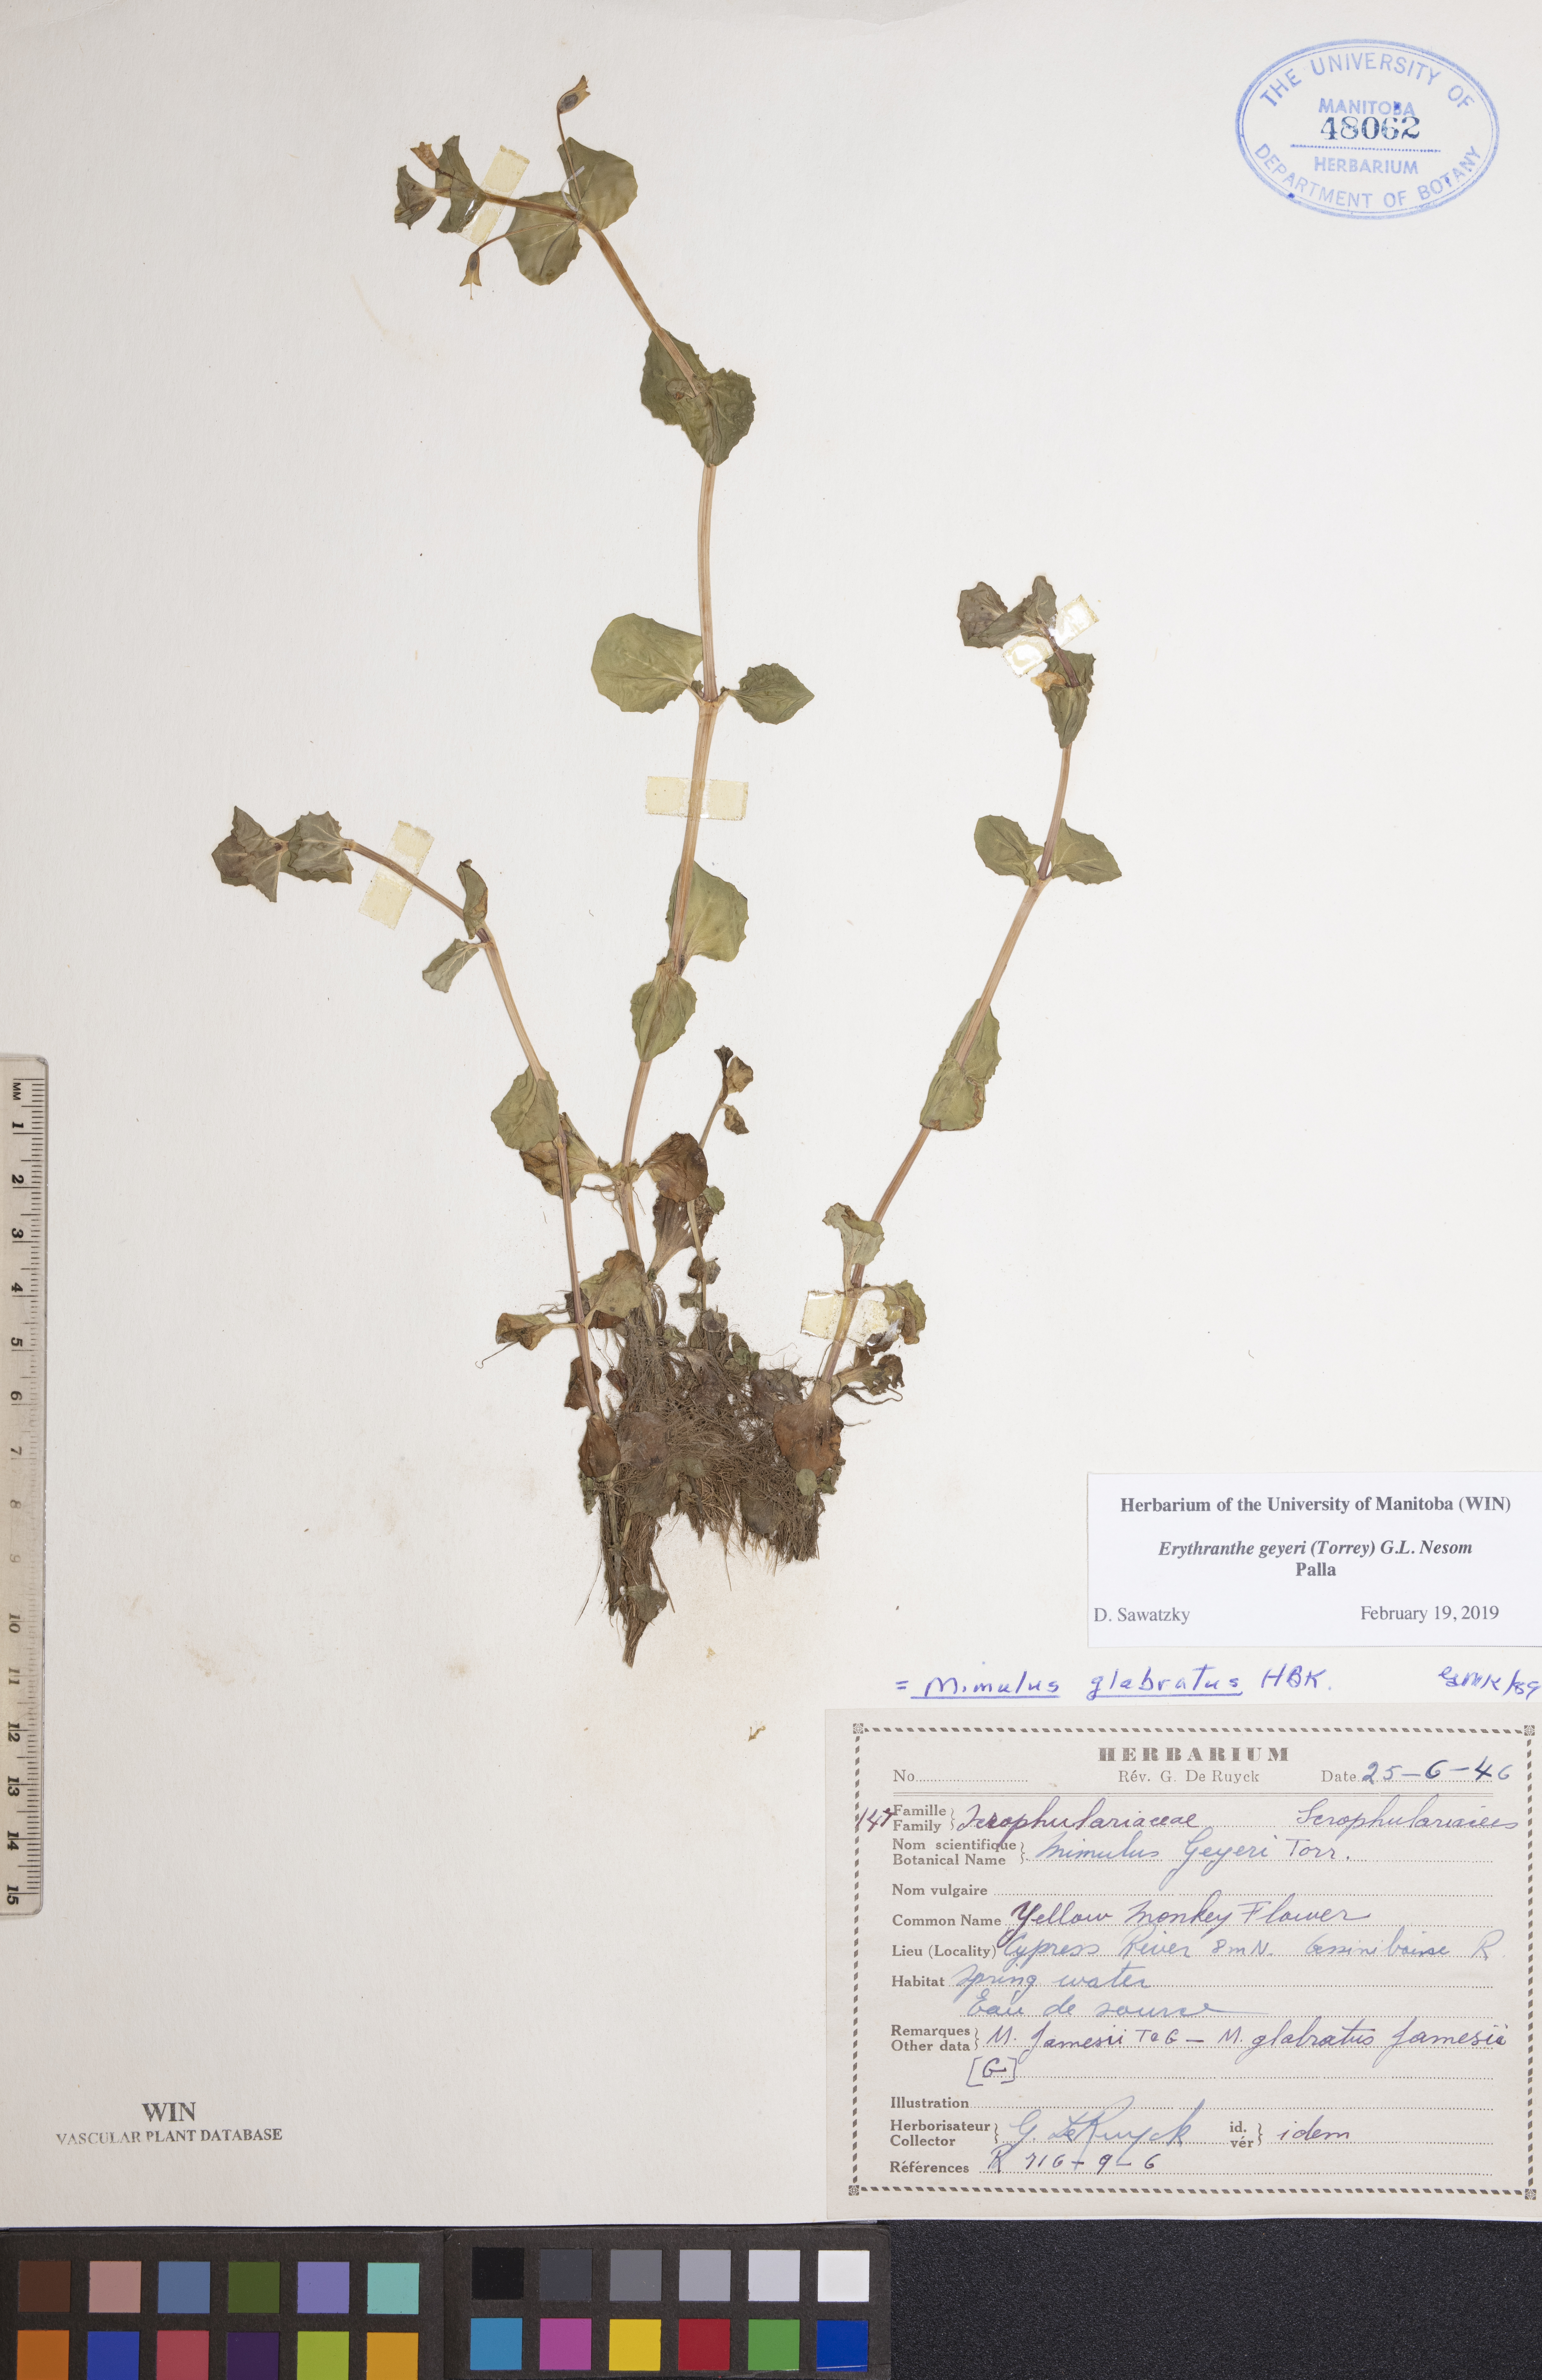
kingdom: Plantae
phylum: Tracheophyta
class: Magnoliopsida
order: Lamiales
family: Phrymaceae
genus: Erythranthe
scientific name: Erythranthe geyeri
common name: Geyer's monkeyflower
